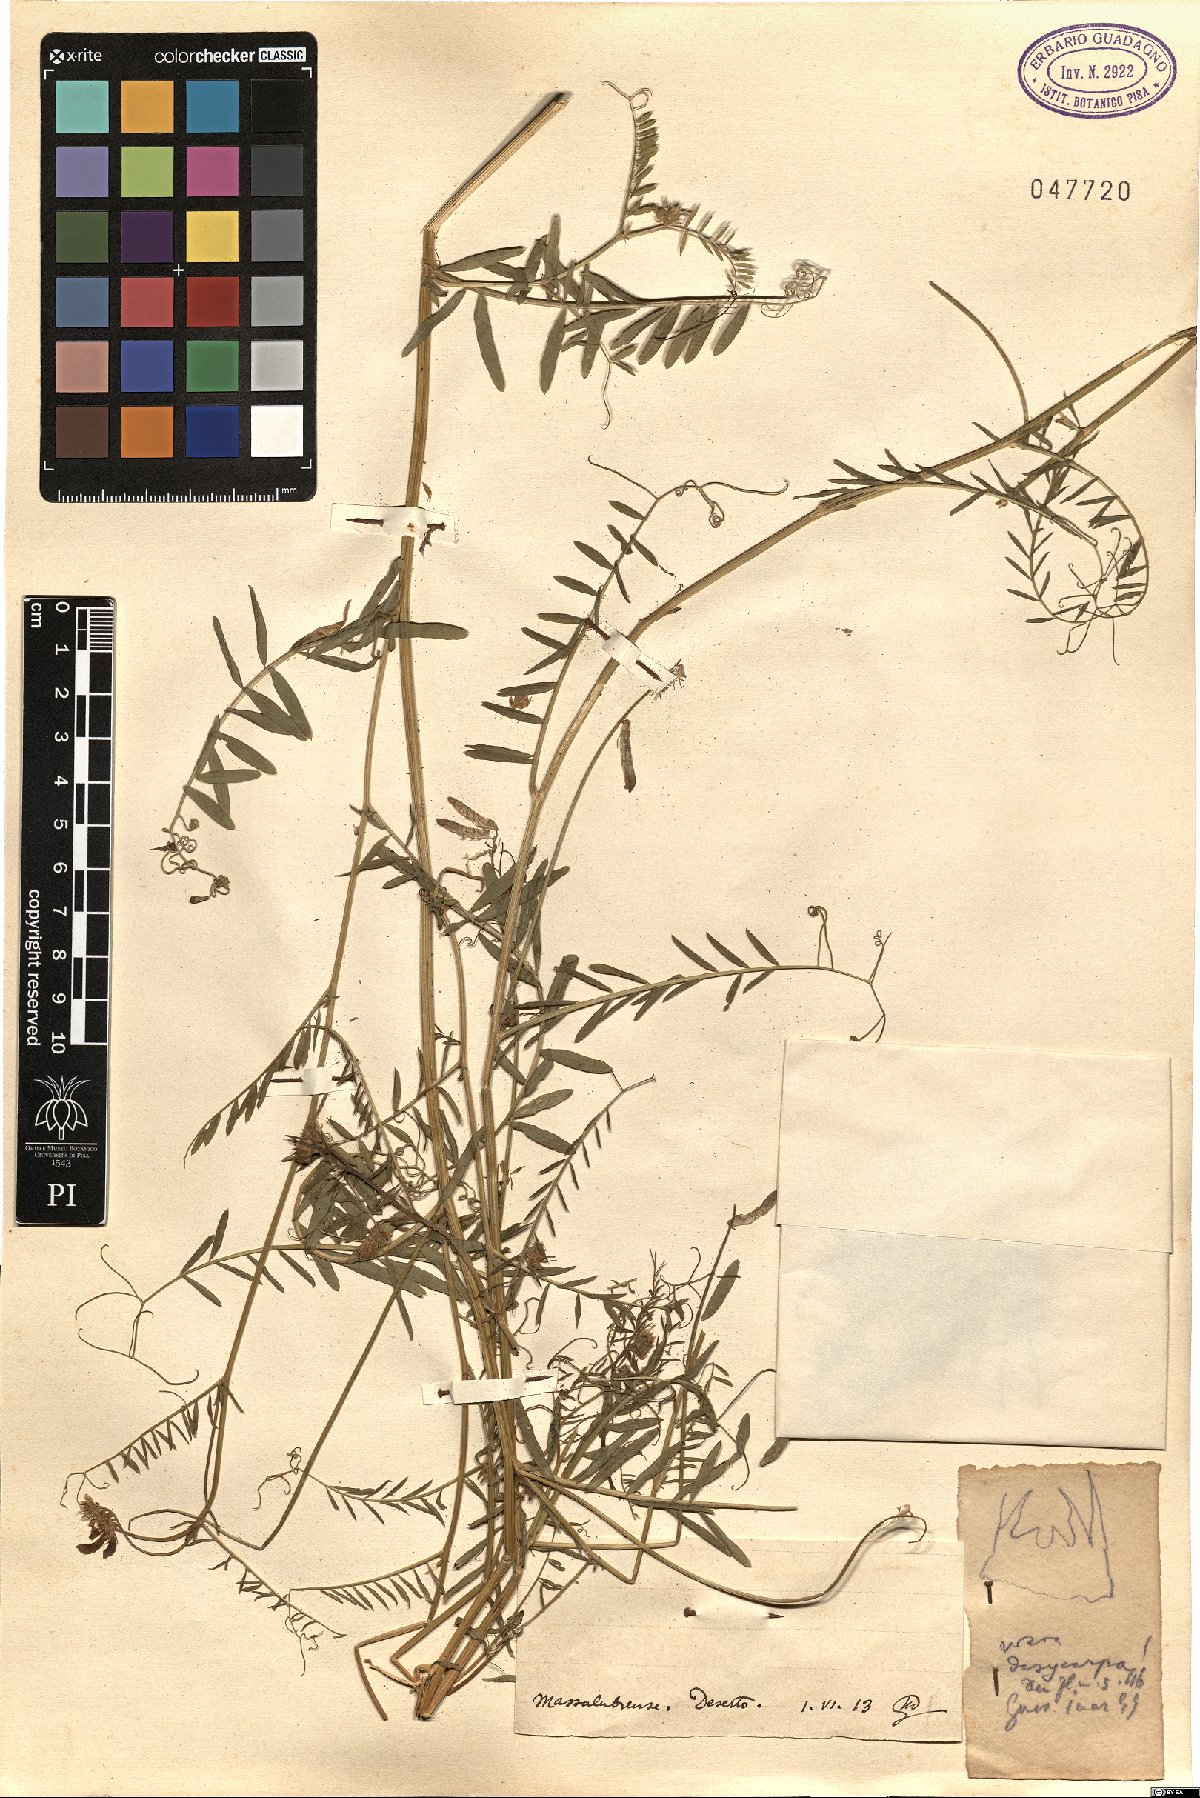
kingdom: Plantae
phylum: Tracheophyta
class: Magnoliopsida
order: Fabales
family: Fabaceae
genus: Vicia
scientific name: Vicia villosa
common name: Fodder vetch
